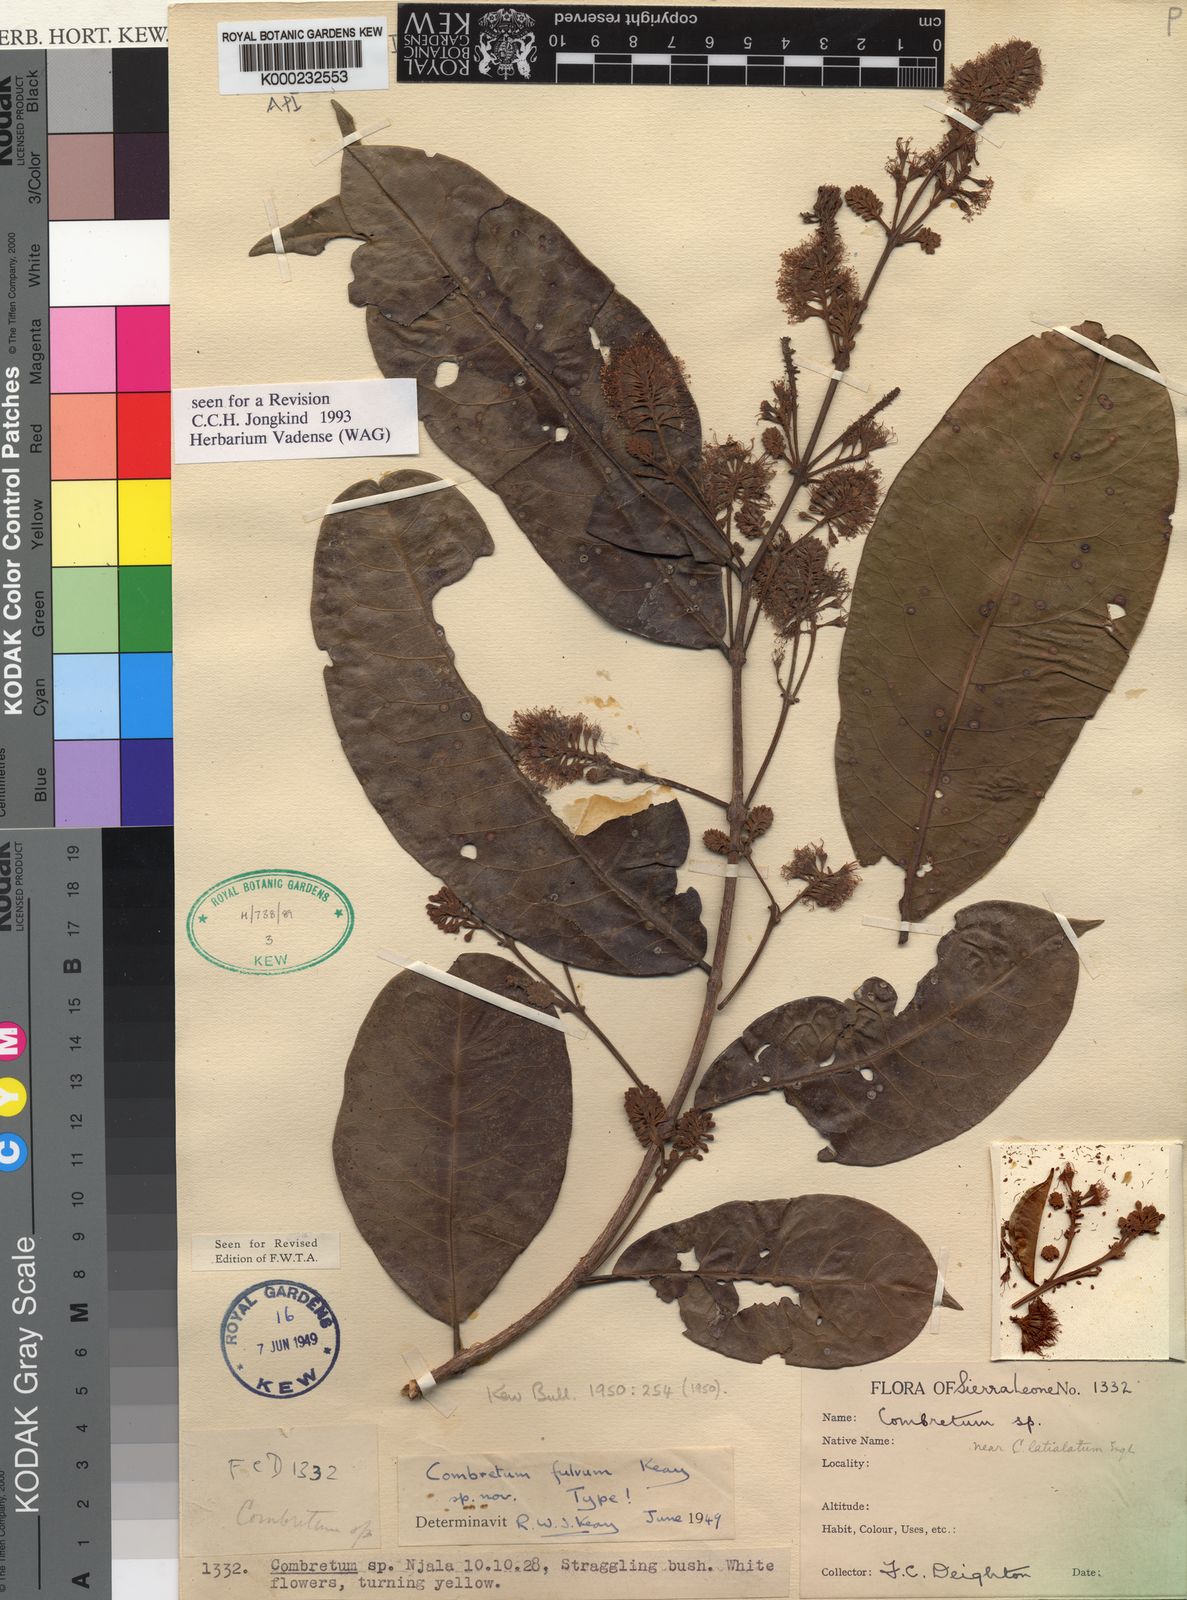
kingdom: Plantae
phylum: Tracheophyta
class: Magnoliopsida
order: Myrtales
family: Combretaceae
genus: Combretum
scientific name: Combretum fulvum
